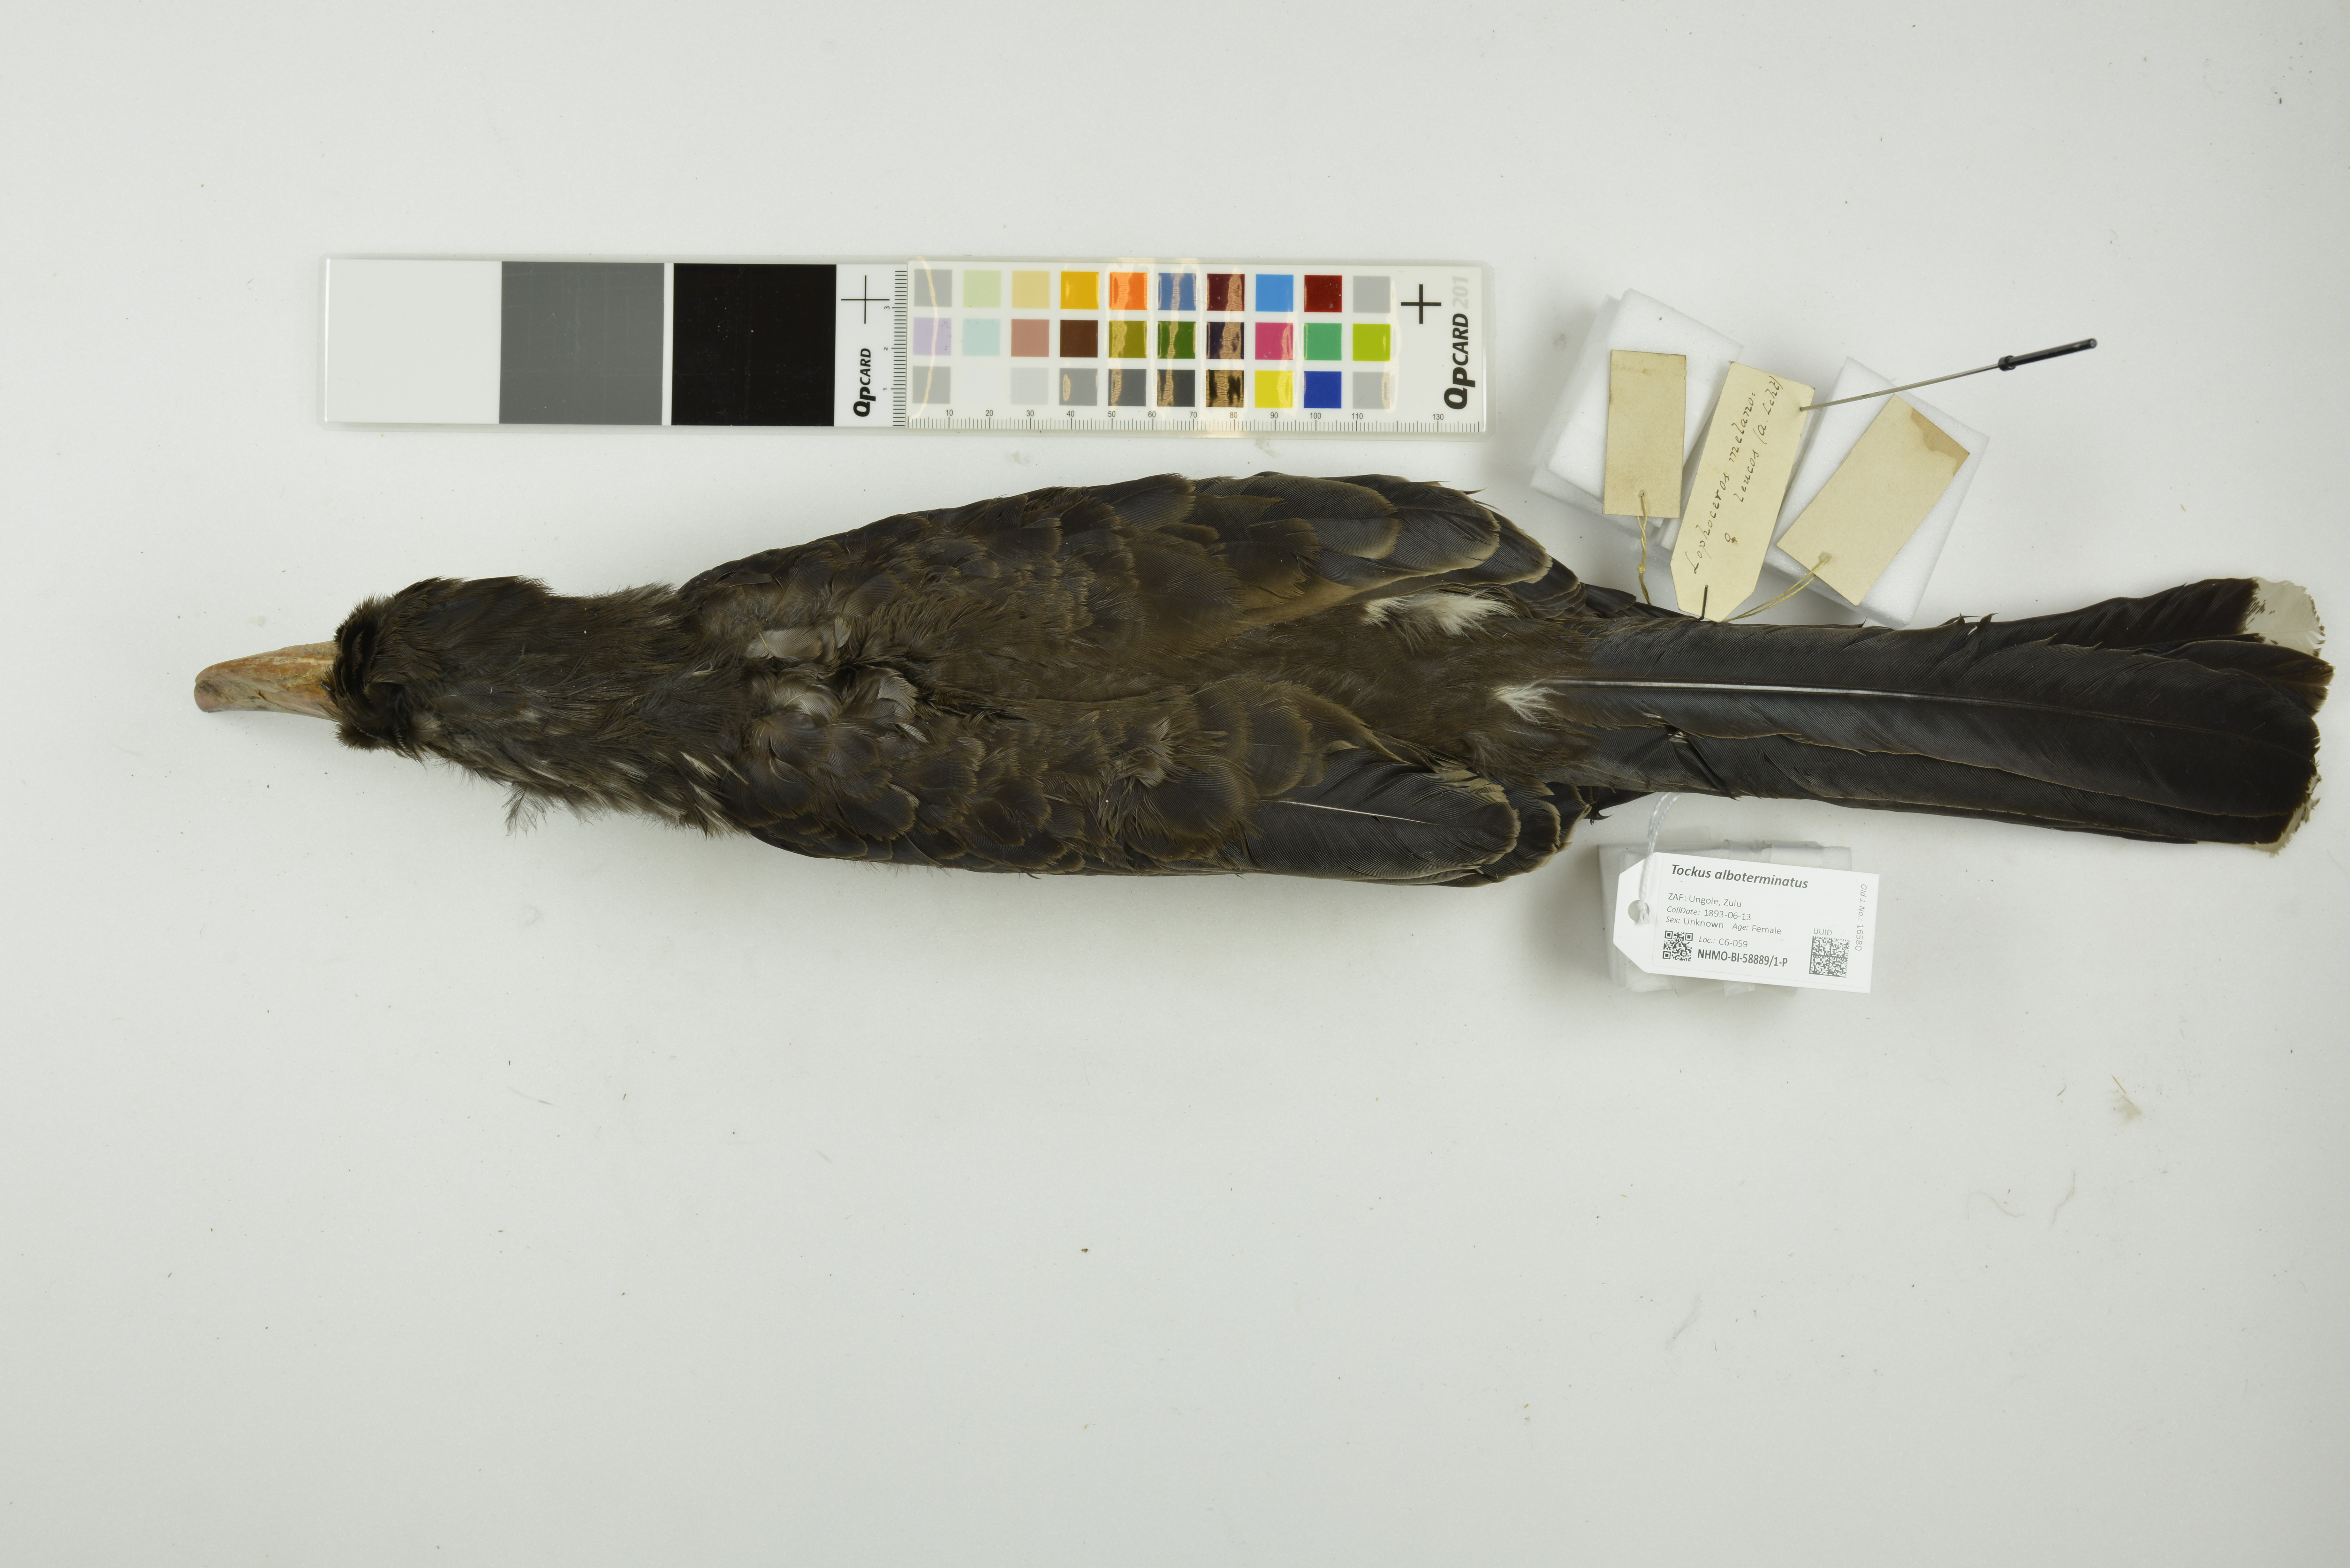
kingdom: Animalia
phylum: Chordata
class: Aves
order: Bucerotiformes
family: Bucerotidae
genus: Lophoceros
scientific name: Lophoceros alboterminatus
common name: Crowned hornbill
